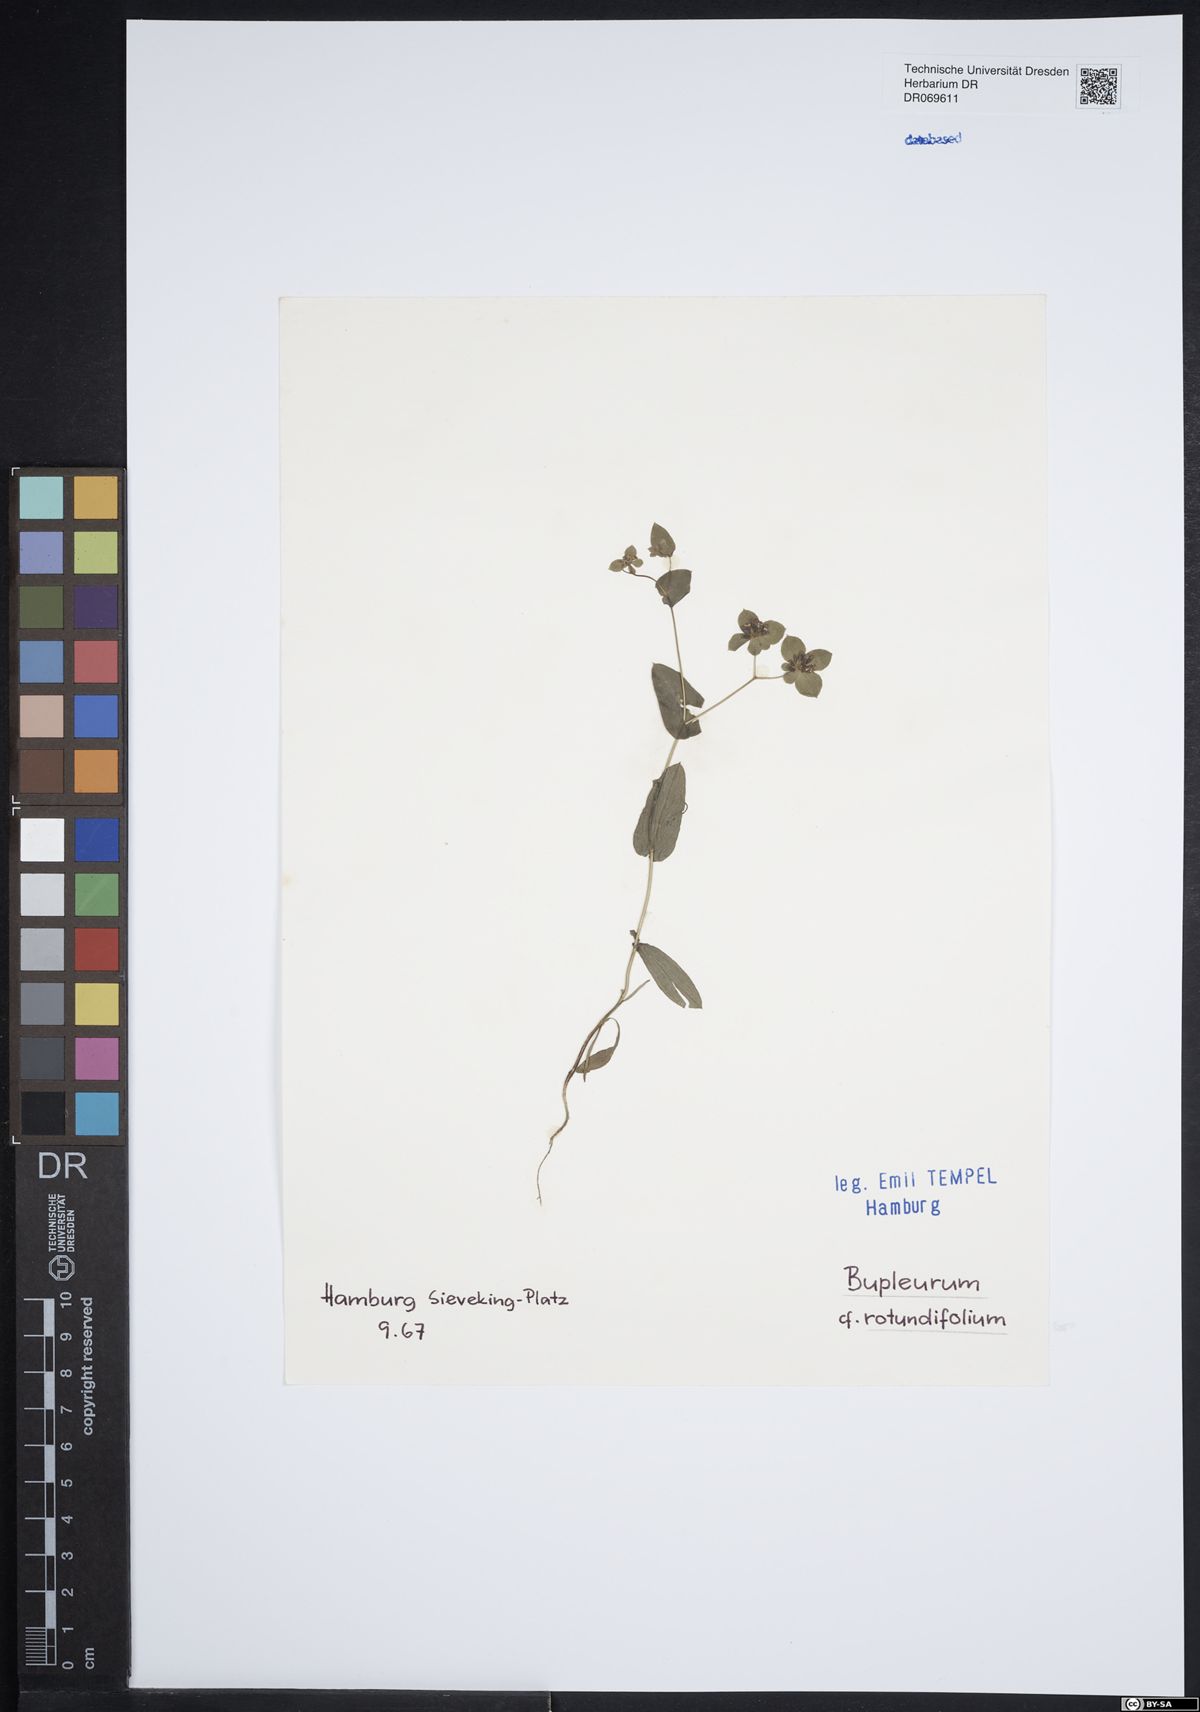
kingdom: Plantae
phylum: Tracheophyta
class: Magnoliopsida
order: Apiales
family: Apiaceae
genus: Bupleurum
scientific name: Bupleurum rotundifolium
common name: Thorow-wax
